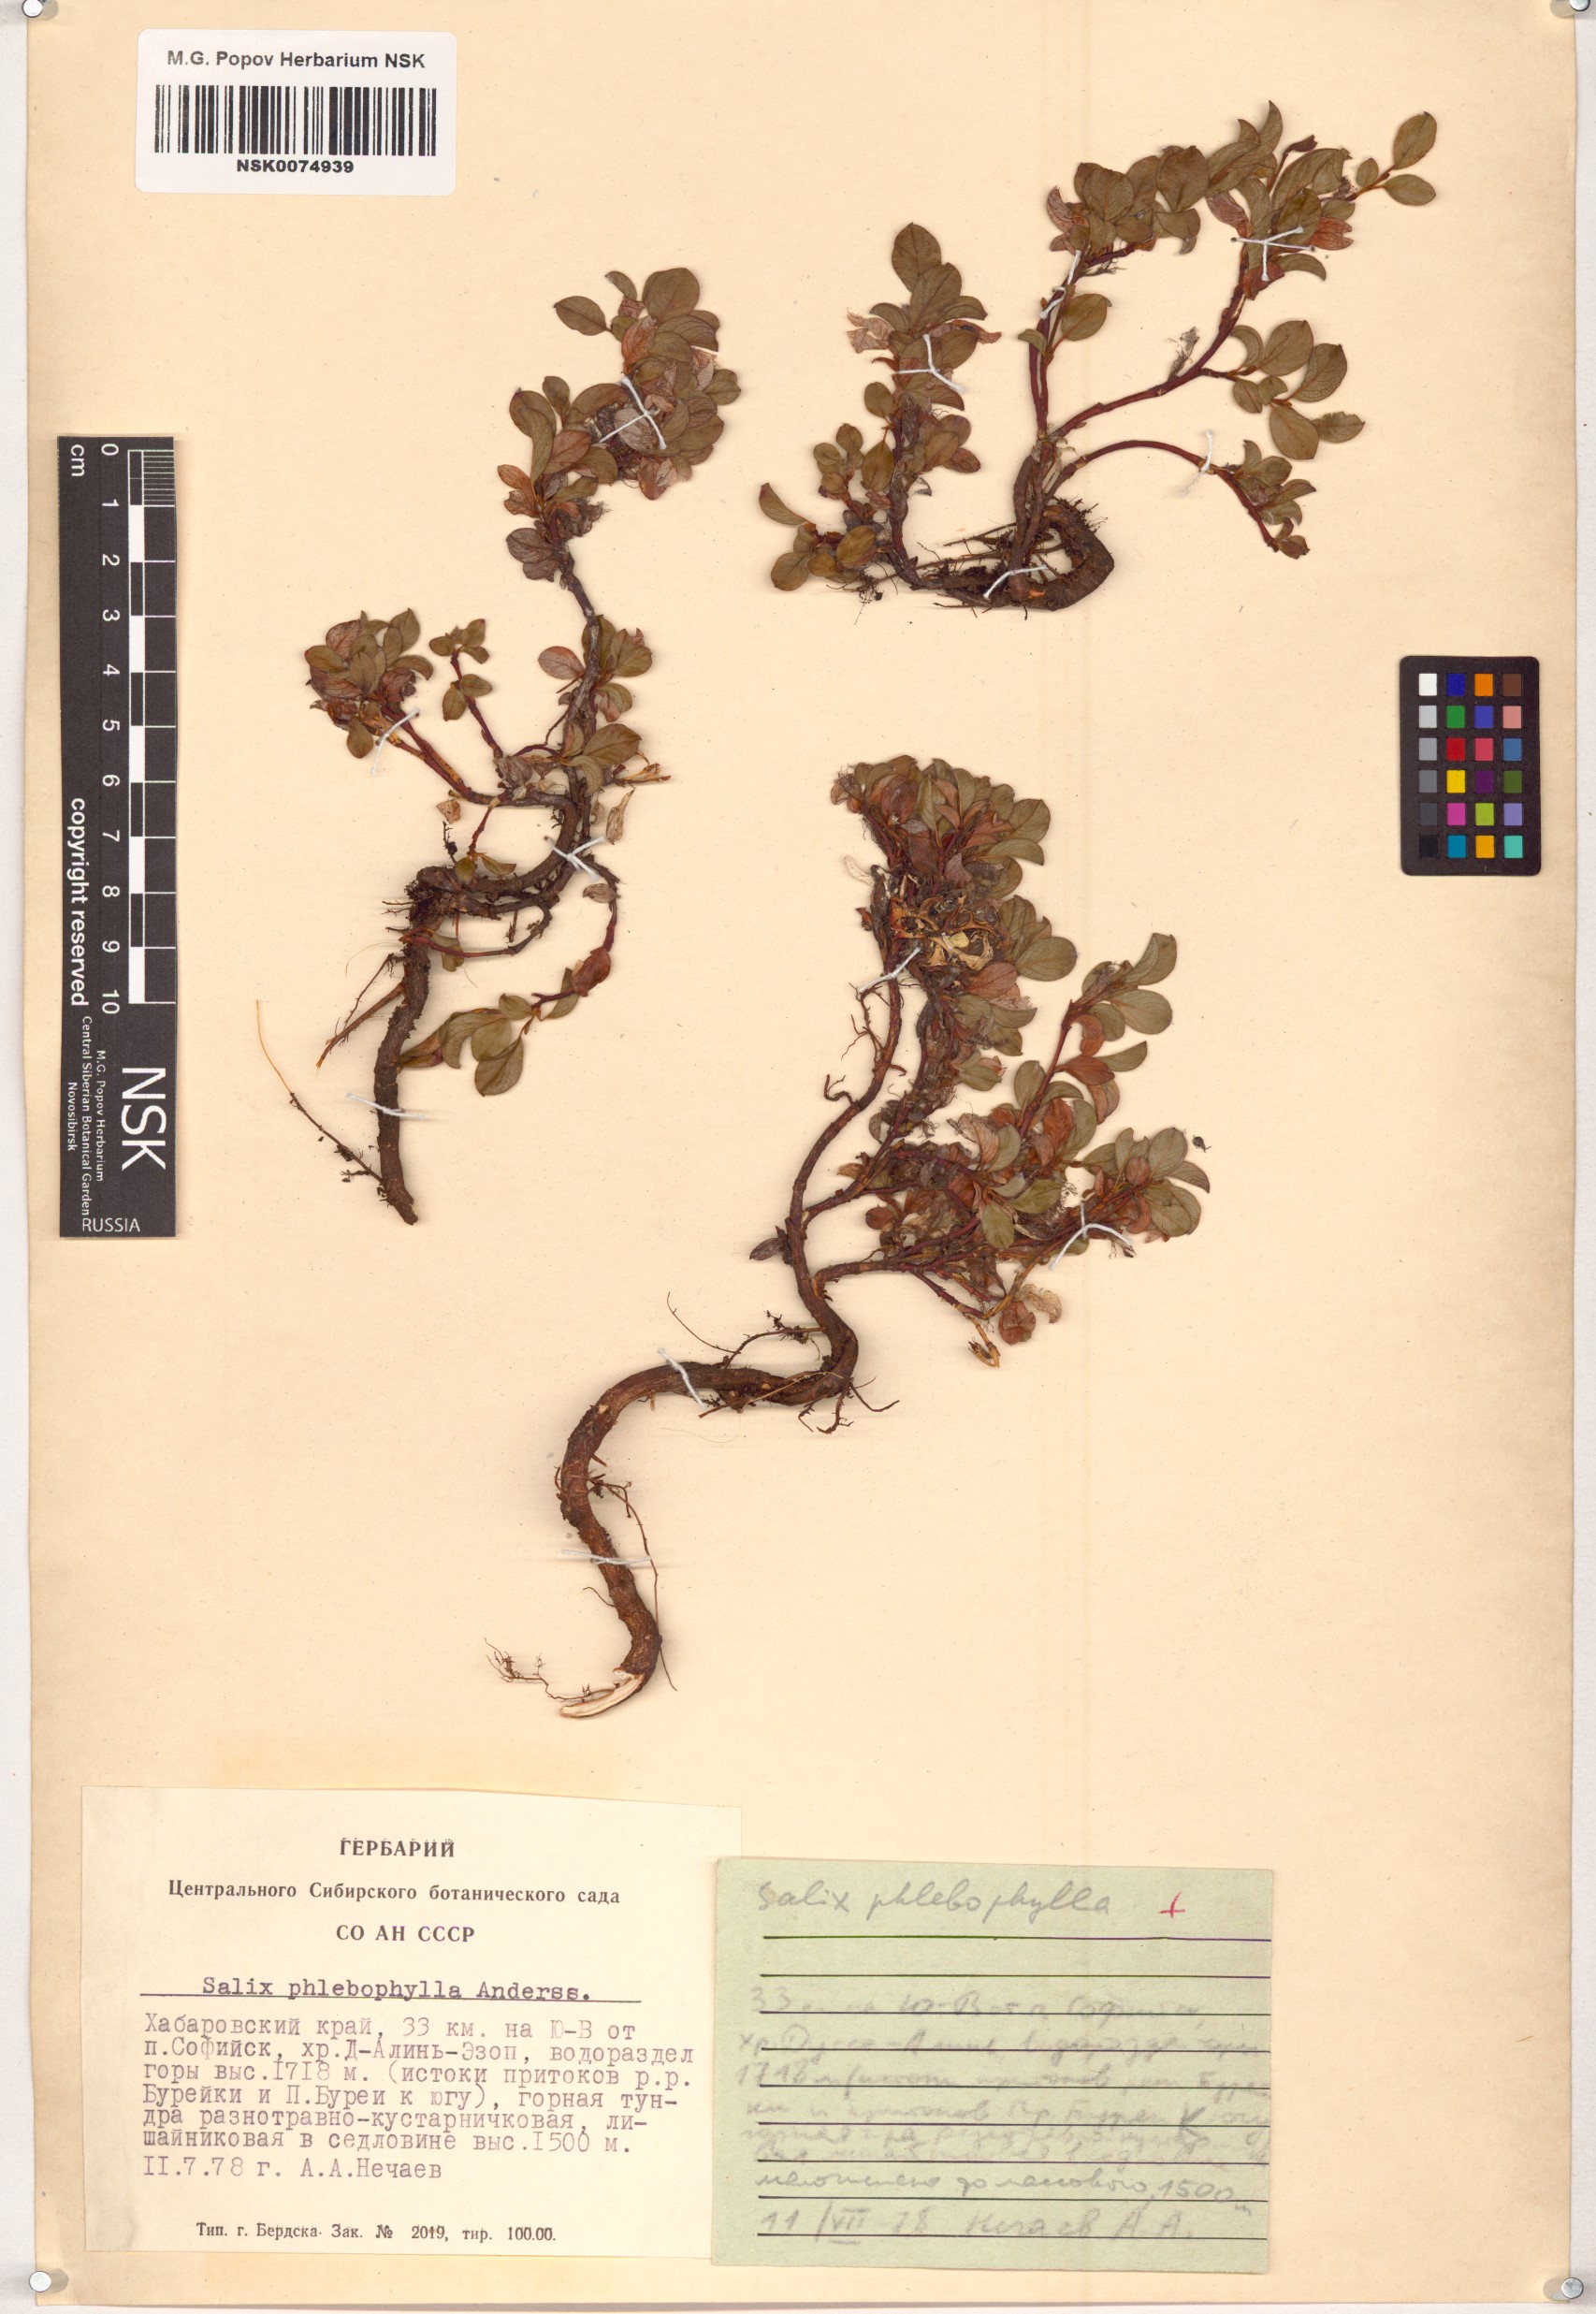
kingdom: Plantae
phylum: Tracheophyta
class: Magnoliopsida
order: Malpighiales
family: Salicaceae
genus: Salix
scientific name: Salix phlebophylla
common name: Skeleton-leaved willow
